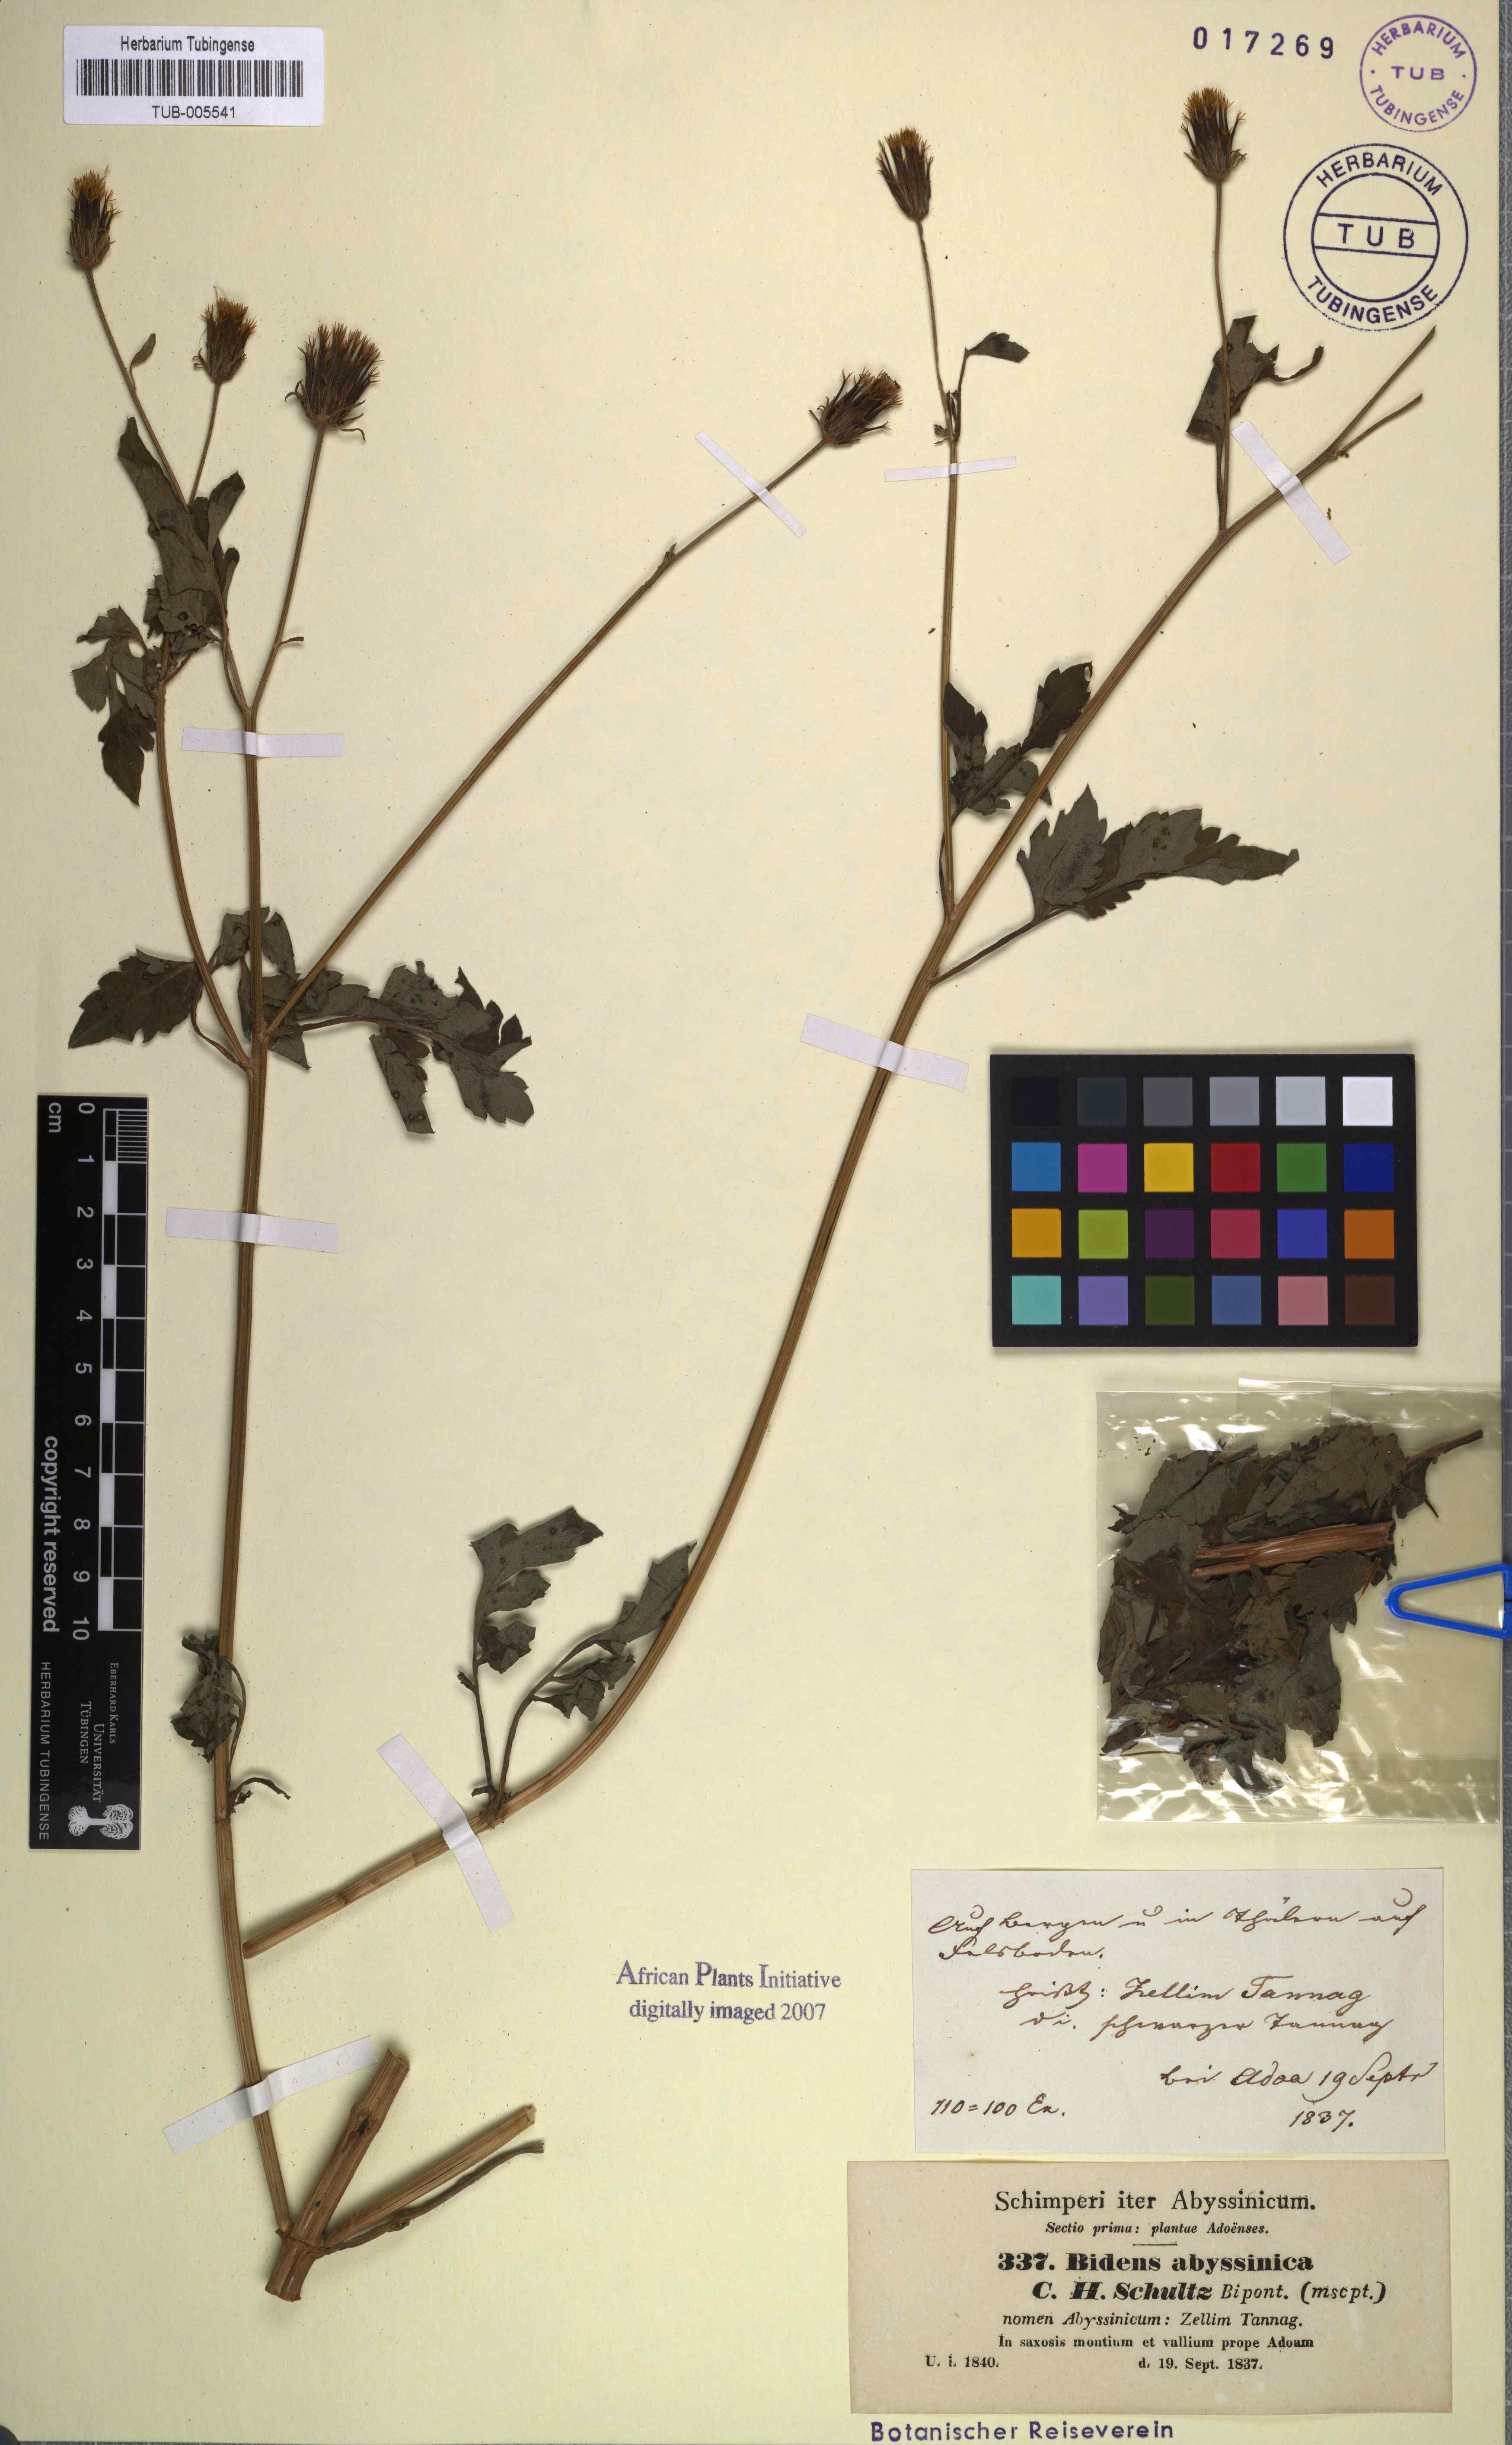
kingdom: Plantae
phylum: Tracheophyta
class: Magnoliopsida
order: Asterales
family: Asteraceae
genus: Bidens
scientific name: Bidens biternata
